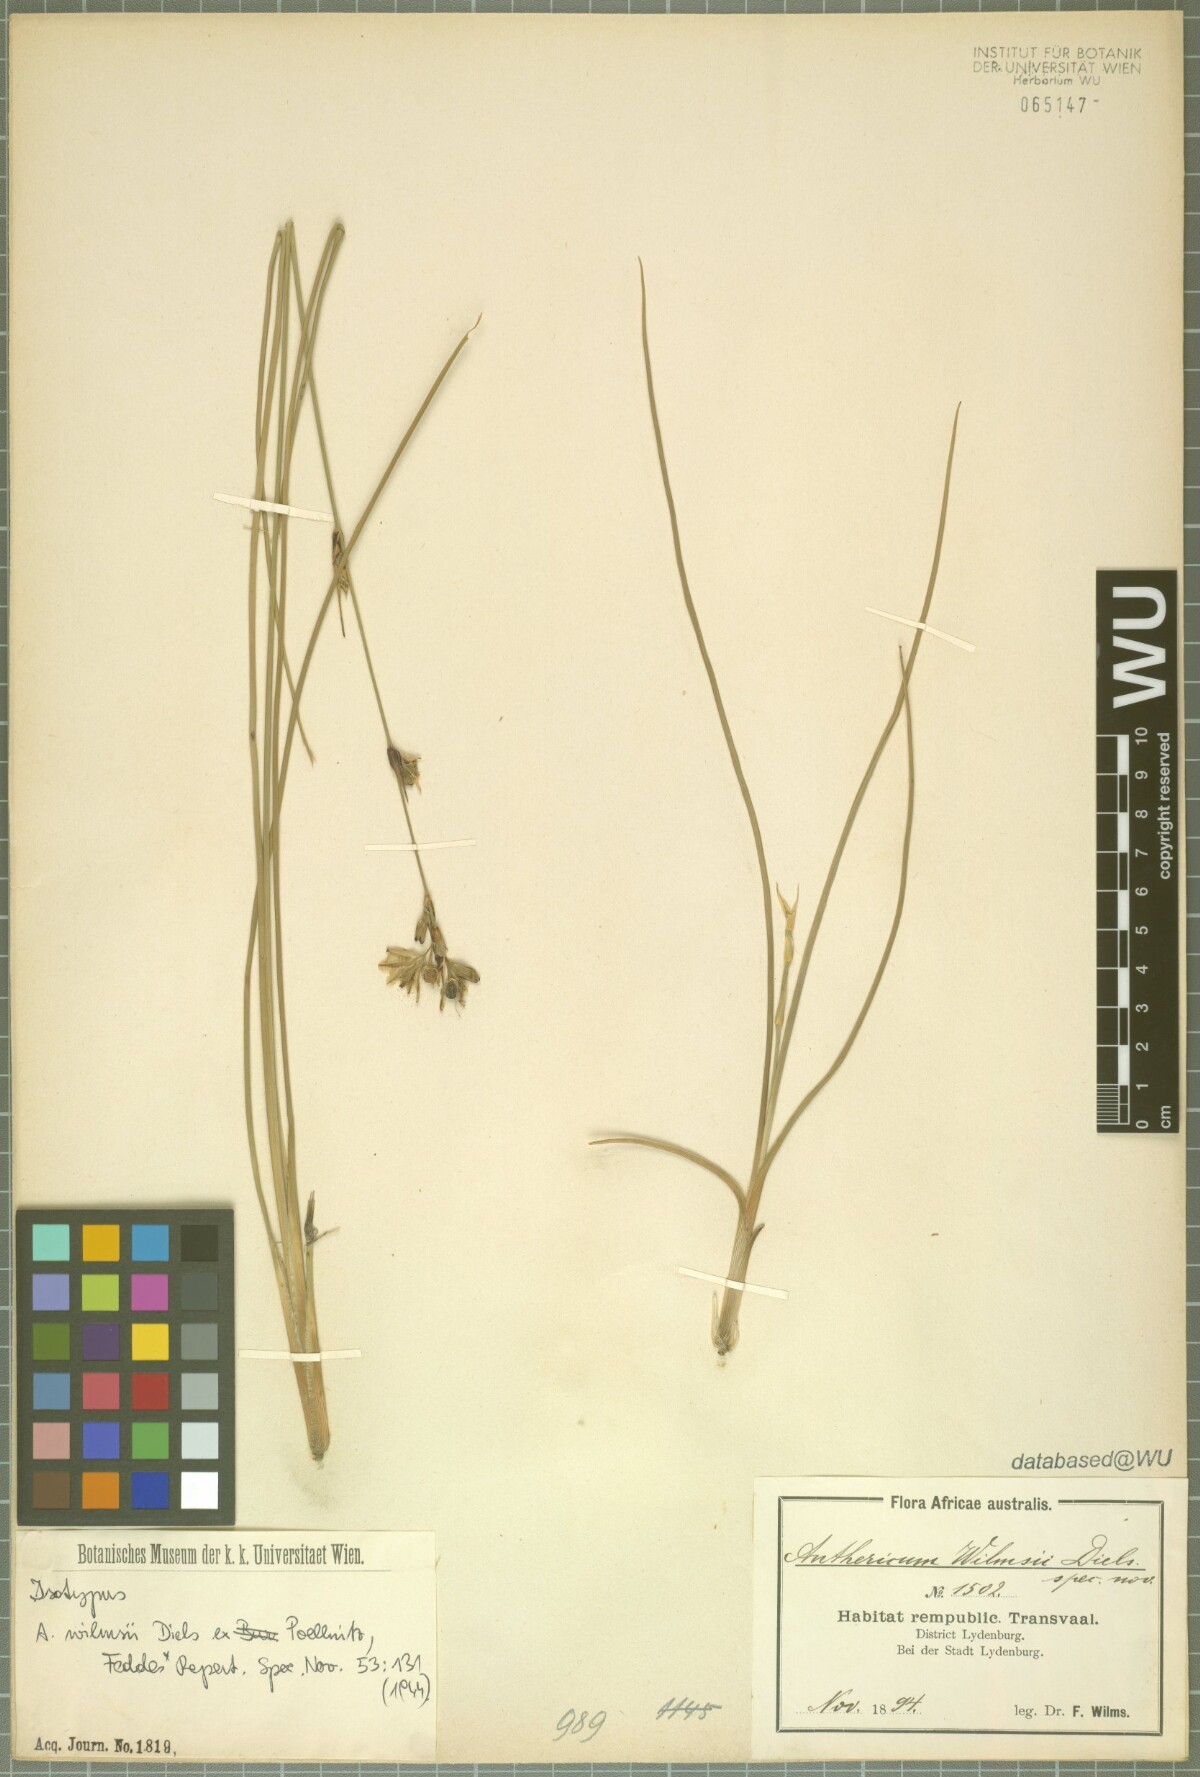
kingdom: Plantae
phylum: Tracheophyta
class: Liliopsida
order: Asparagales
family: Asparagaceae
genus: Chlorophytum
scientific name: Chlorophytum fasciculatum
